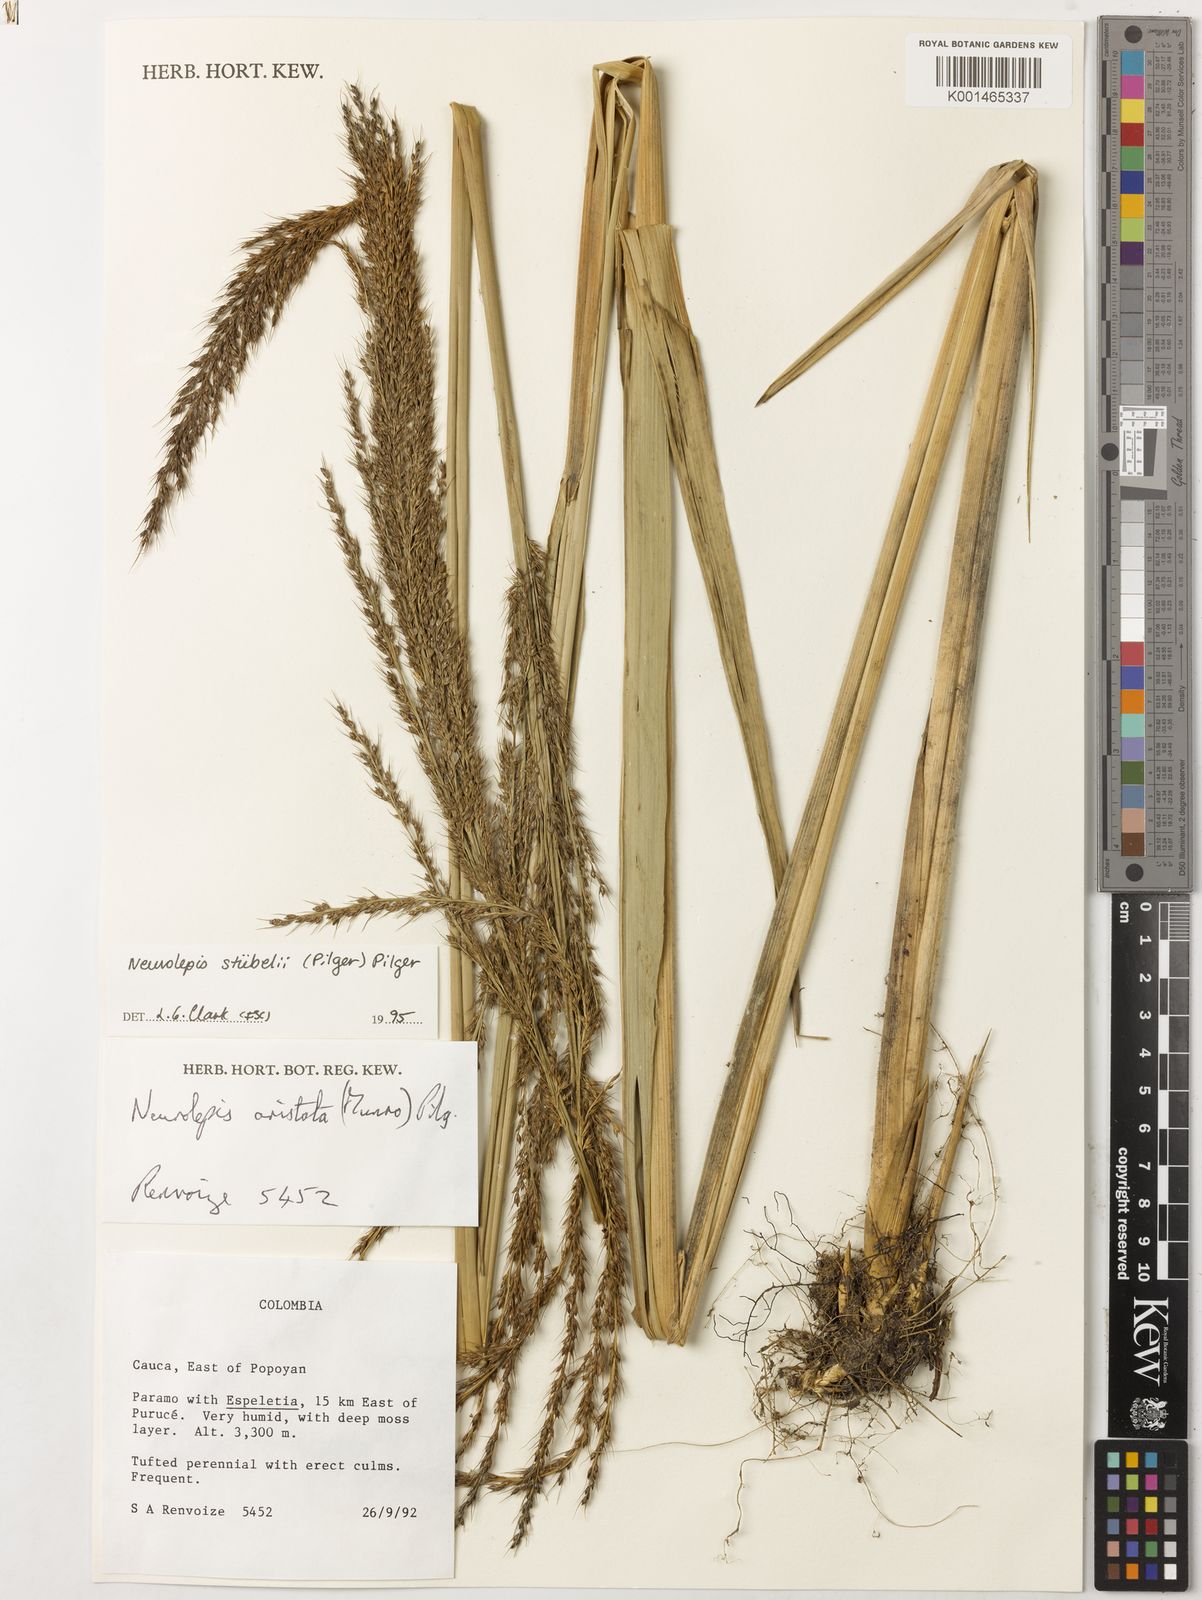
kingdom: Plantae
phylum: Tracheophyta
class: Liliopsida
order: Poales
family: Poaceae
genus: Chusquea
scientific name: Chusquea stuebelii
